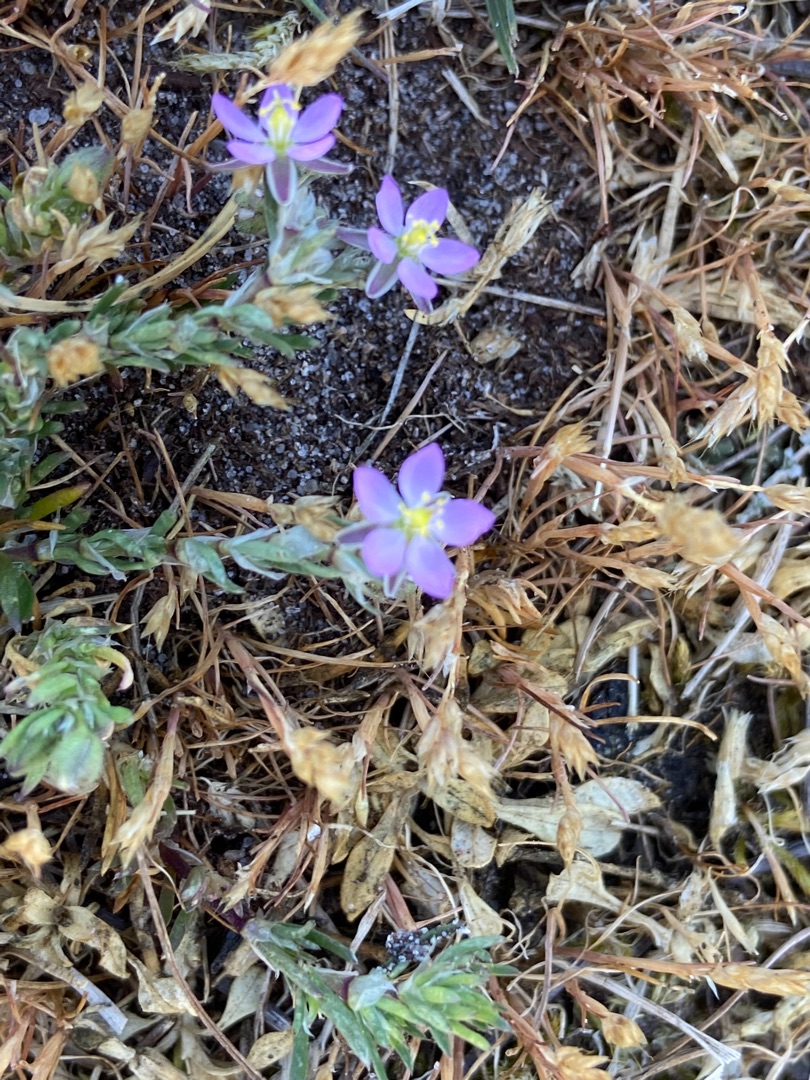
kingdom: Plantae
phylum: Tracheophyta
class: Magnoliopsida
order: Caryophyllales
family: Caryophyllaceae
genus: Spergularia
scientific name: Spergularia rubra
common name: Mark-hindeknæ
